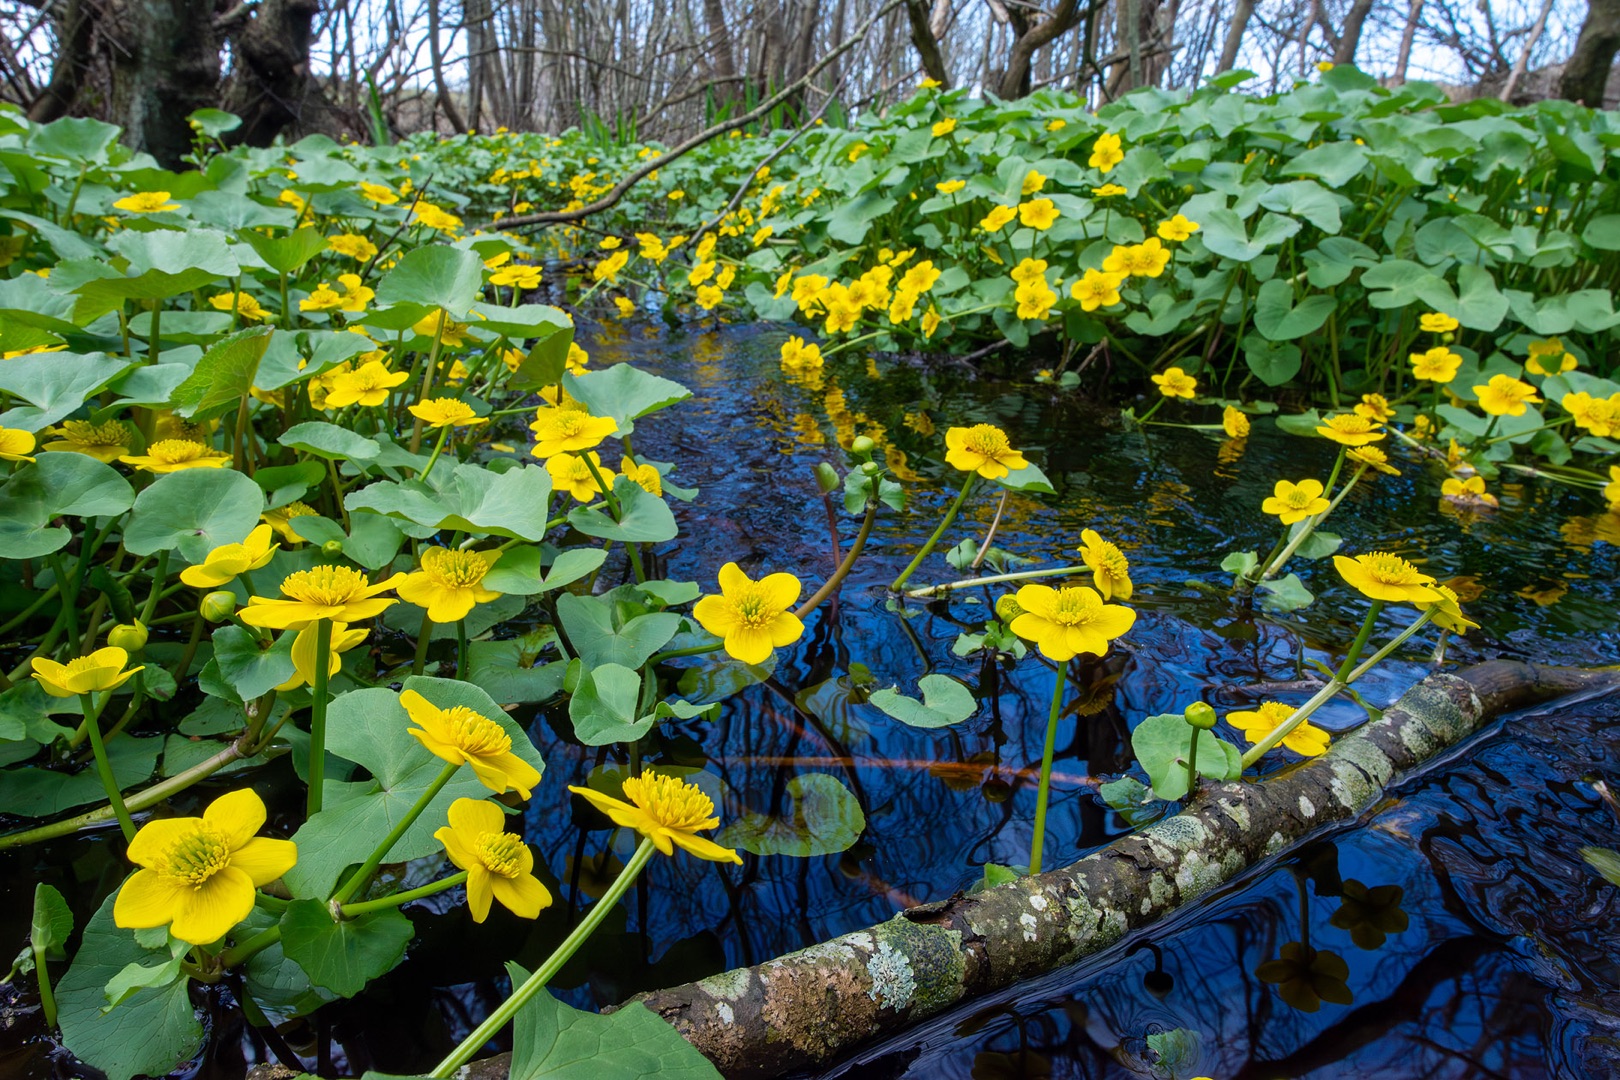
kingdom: Plantae
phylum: Tracheophyta
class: Magnoliopsida
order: Ranunculales
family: Ranunculaceae
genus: Caltha
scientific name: Caltha palustris
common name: Eng-kabbeleje
